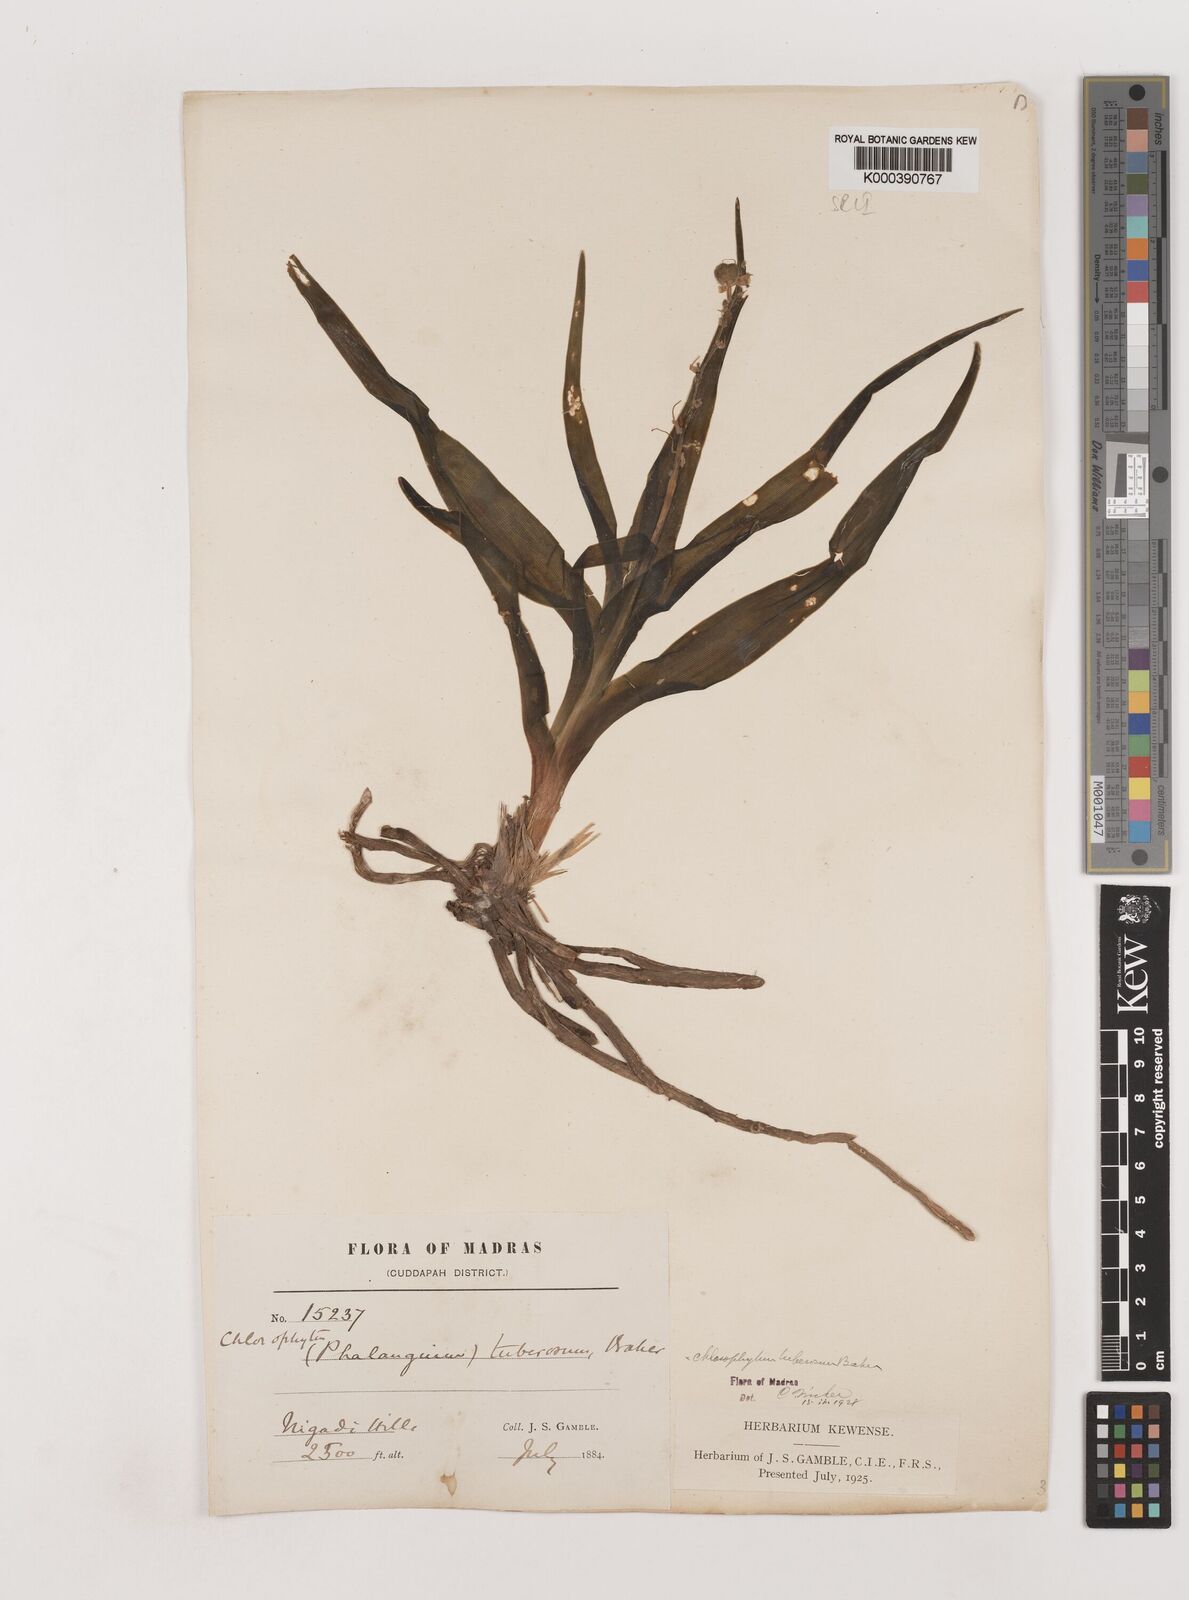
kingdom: Plantae
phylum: Tracheophyta
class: Liliopsida
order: Asparagales
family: Asparagaceae
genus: Chlorophytum
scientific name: Chlorophytum tuberosum
